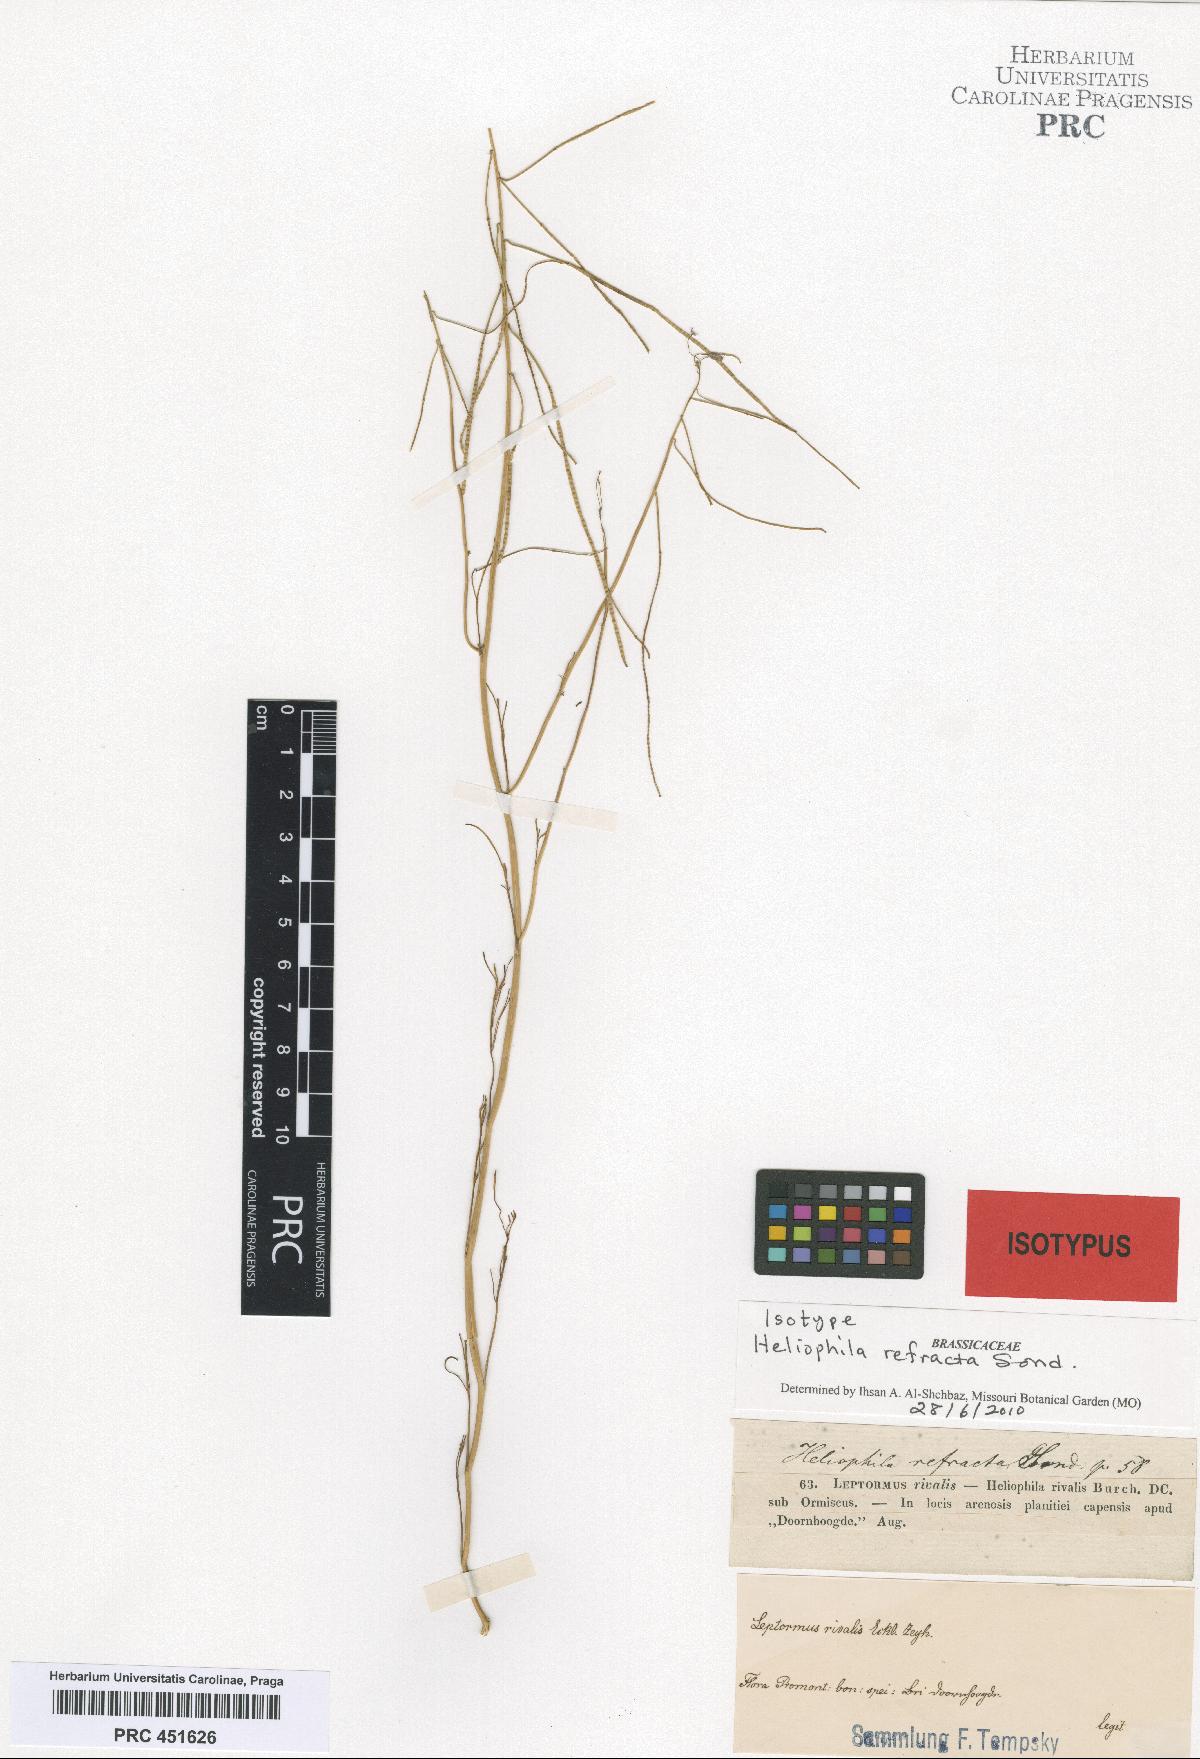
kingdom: Plantae
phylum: Tracheophyta
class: Magnoliopsida
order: Brassicales
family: Brassicaceae
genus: Heliophila
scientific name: Heliophila refracta
